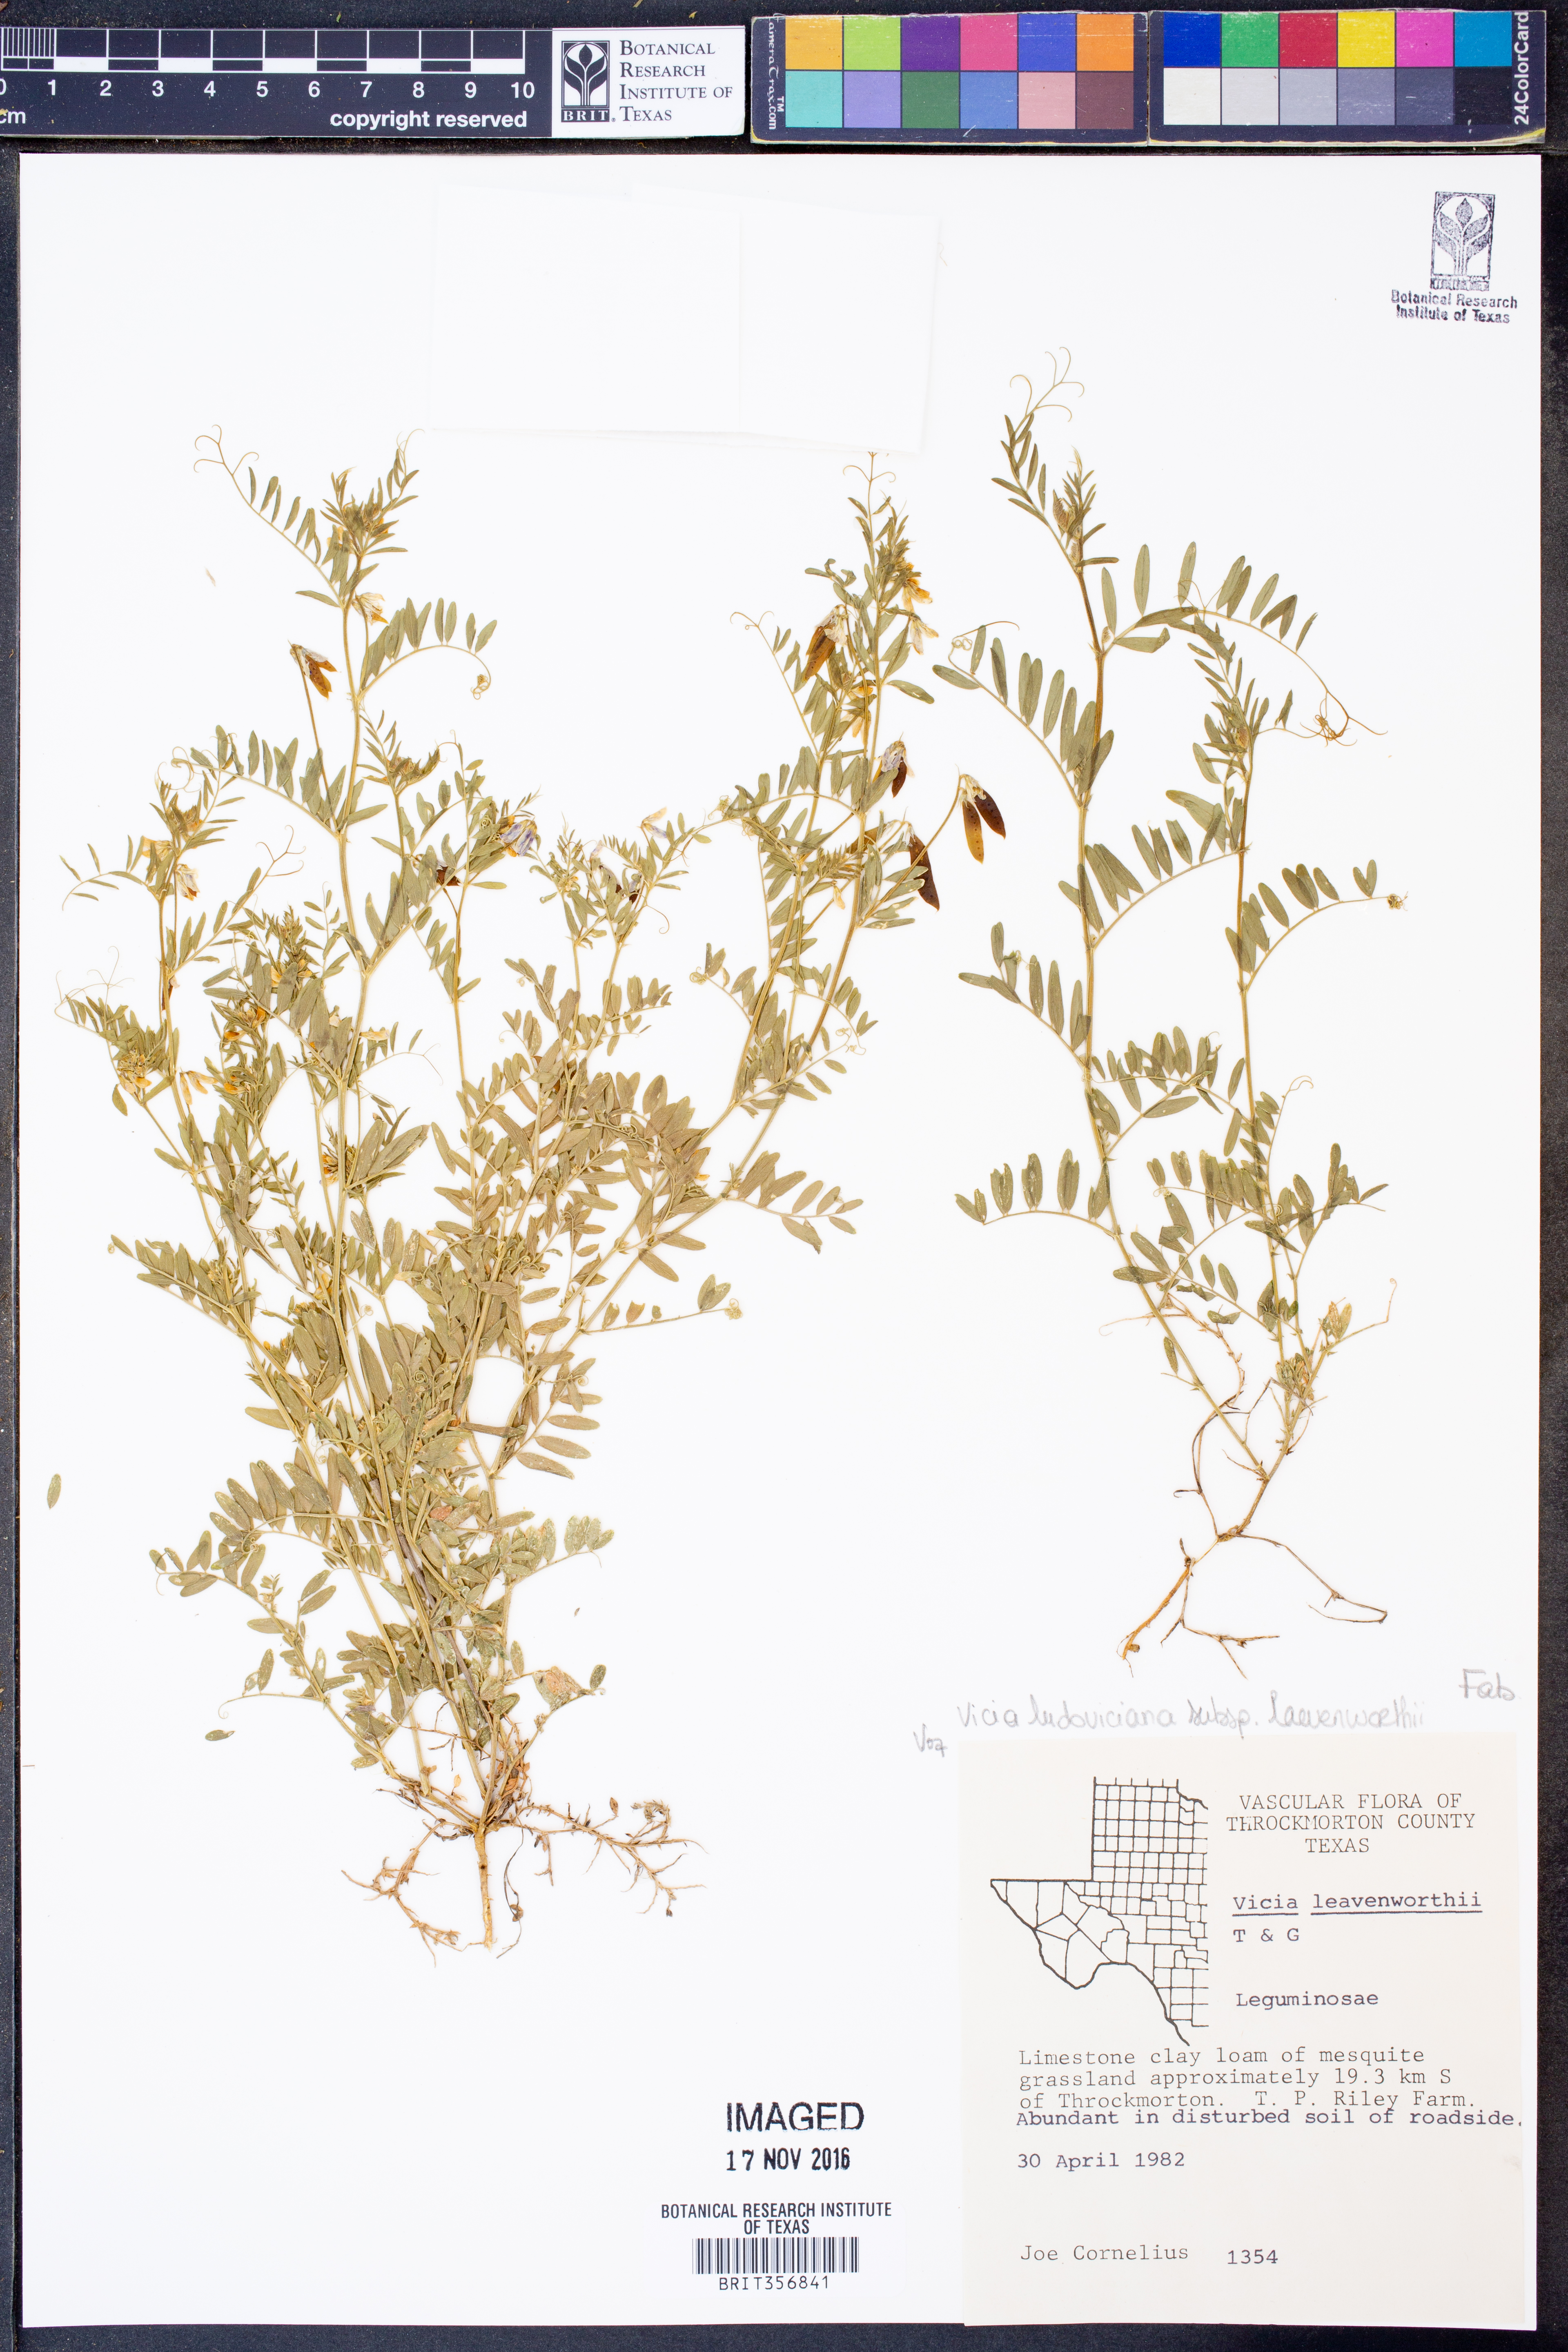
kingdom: Plantae
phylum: Tracheophyta
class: Magnoliopsida
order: Fabales
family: Fabaceae
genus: Vicia
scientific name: Vicia ludoviciana
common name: Louisiana vetch
